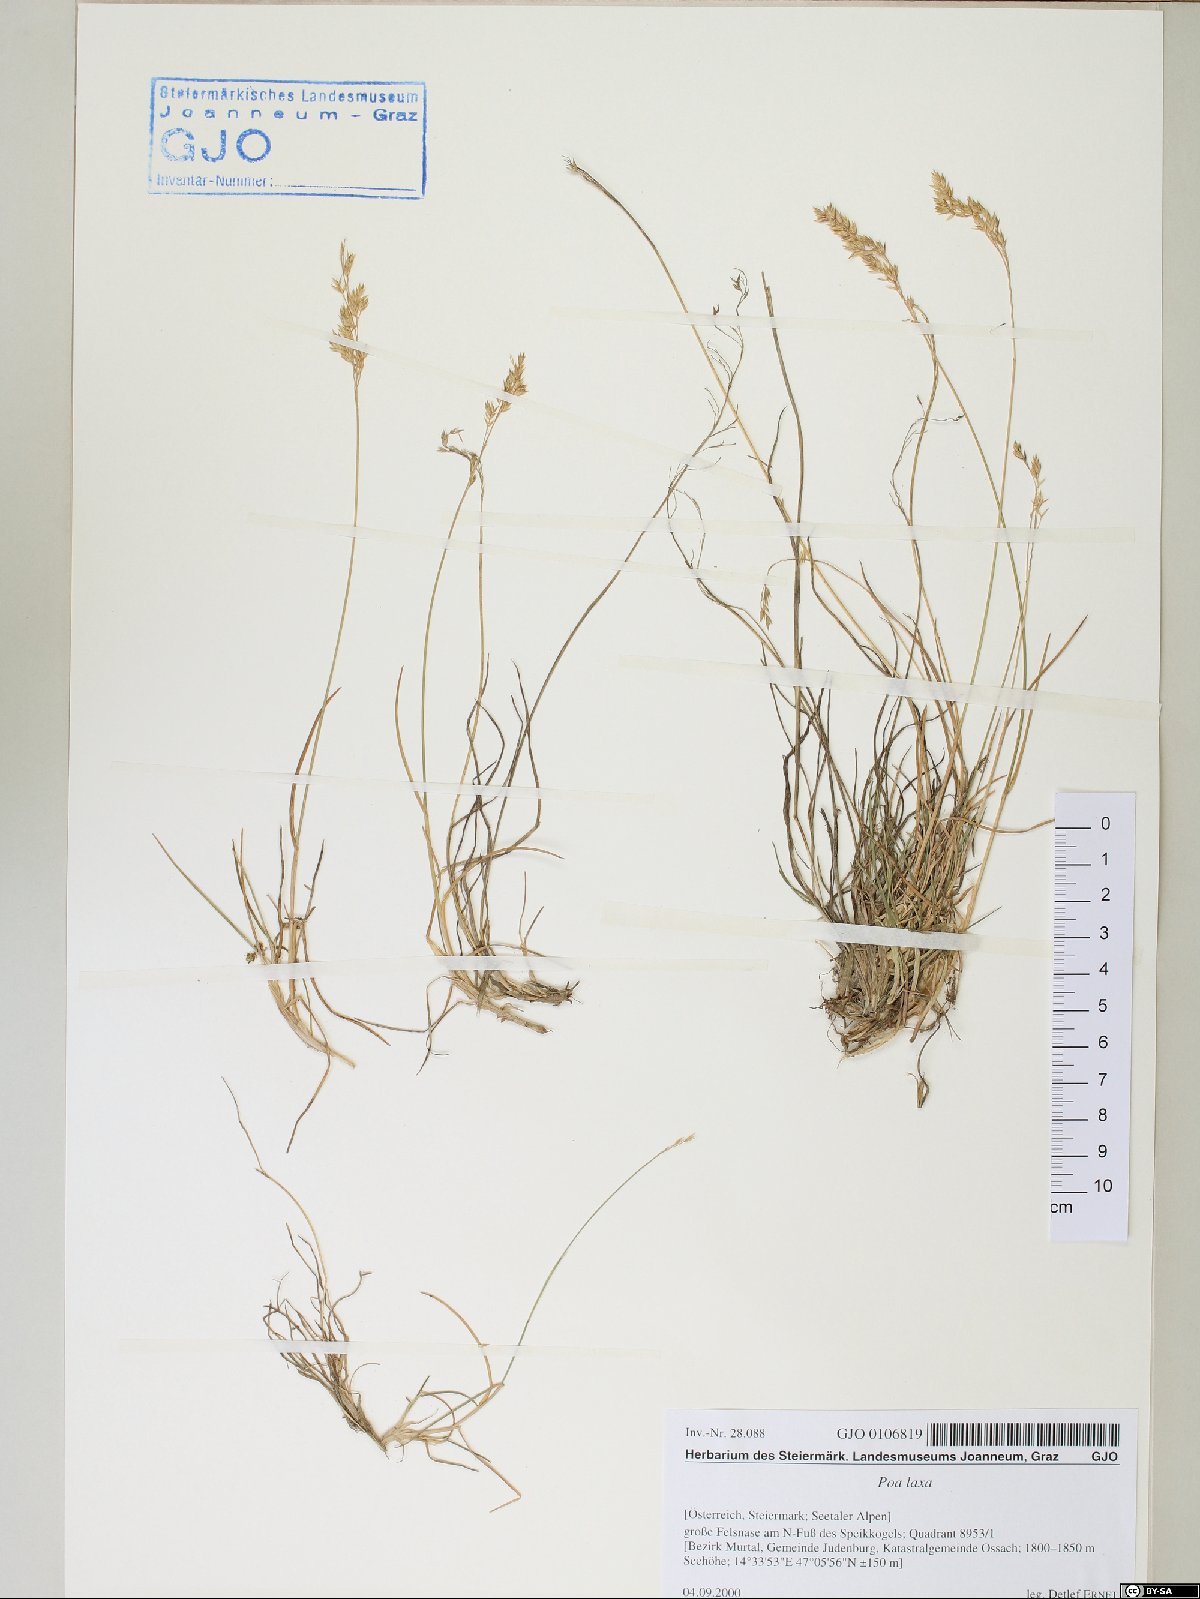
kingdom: Plantae
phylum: Tracheophyta
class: Liliopsida
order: Poales
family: Poaceae
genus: Poa
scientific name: Poa laxa
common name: Lax bluegrass
